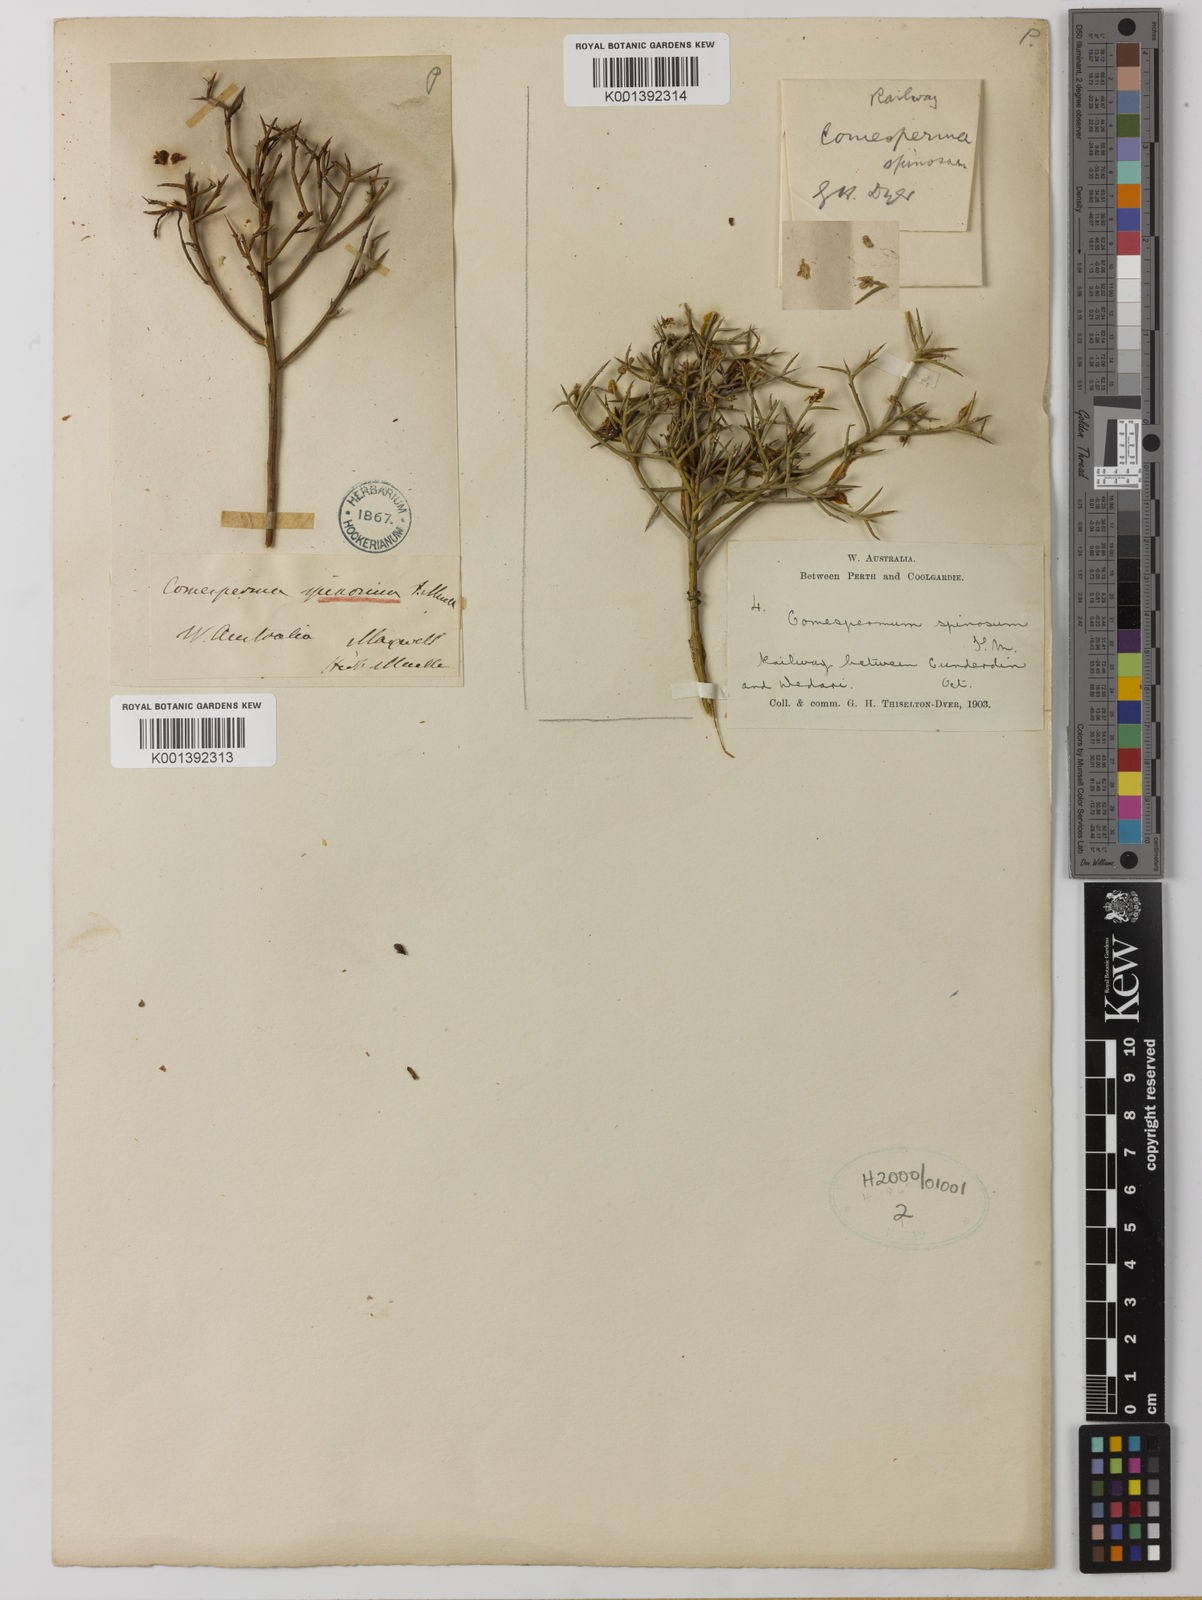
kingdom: Plantae
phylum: Tracheophyta
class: Magnoliopsida
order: Fabales
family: Polygalaceae
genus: Comesperma
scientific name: Comesperma spinosum
